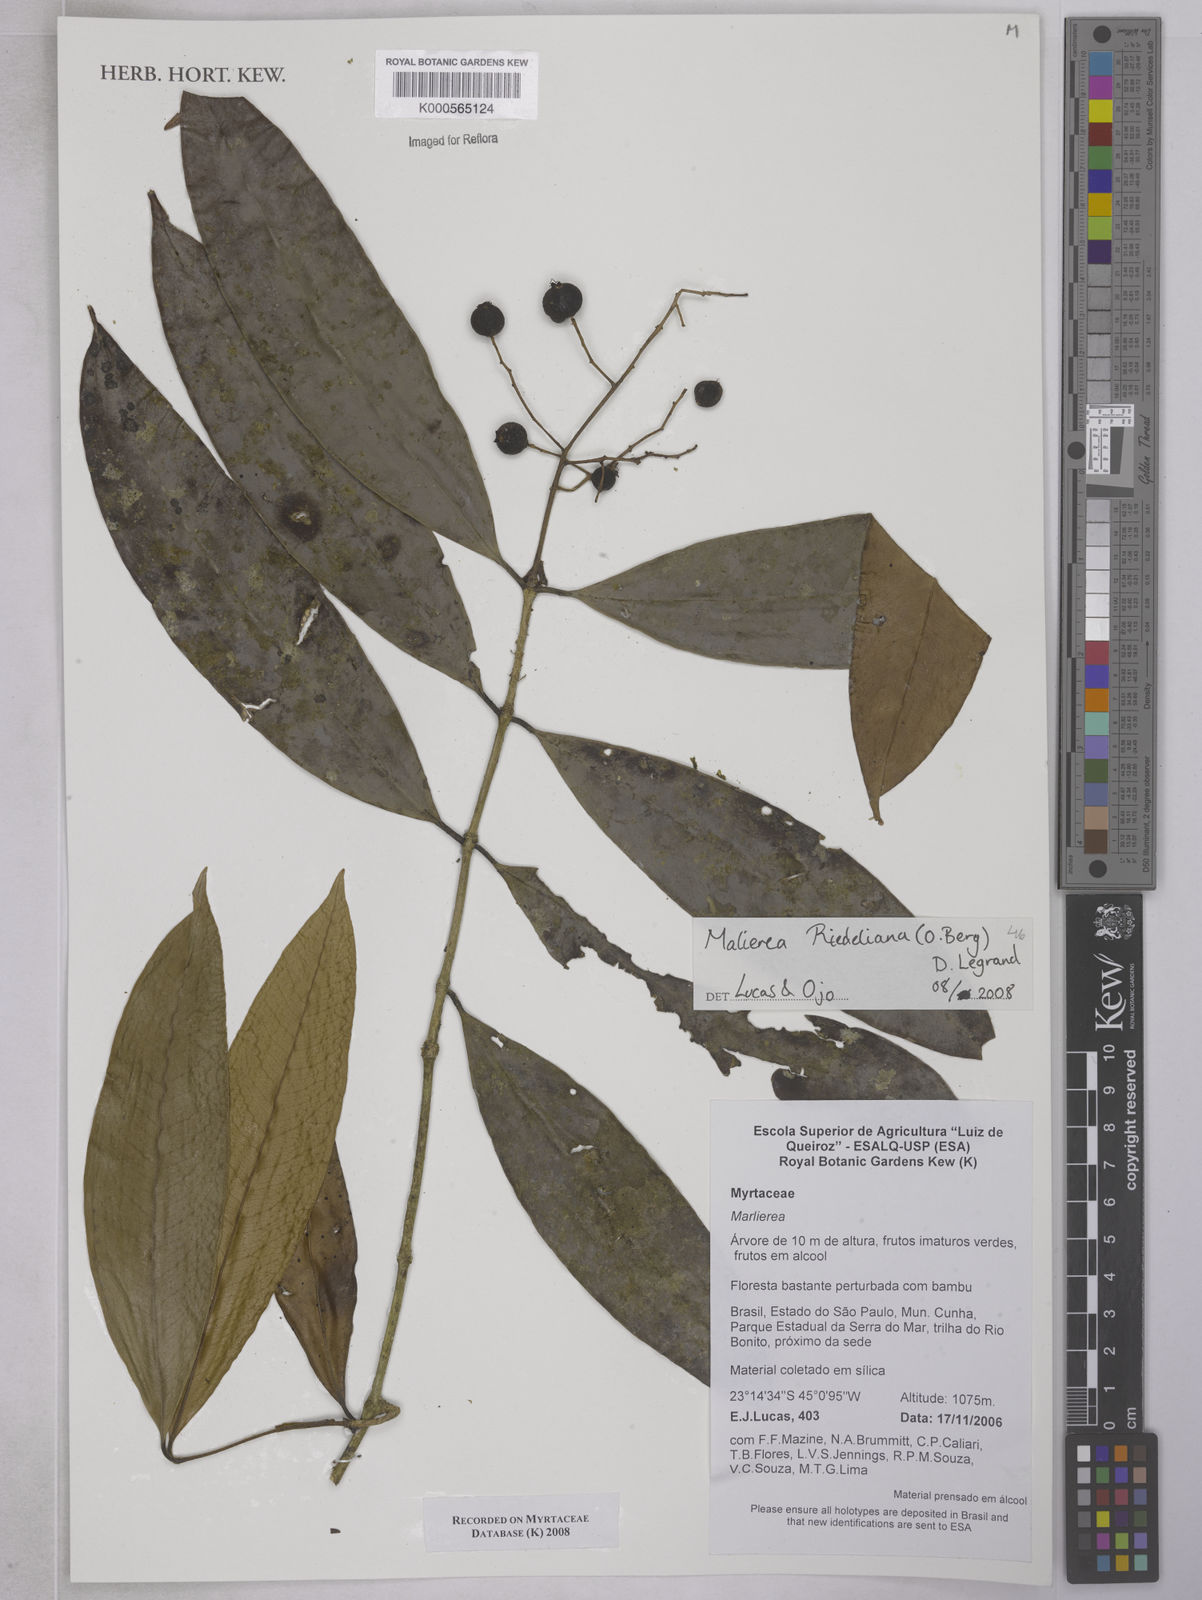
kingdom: Plantae
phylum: Tracheophyta
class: Magnoliopsida
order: Myrtales
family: Myrtaceae
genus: Myrcia
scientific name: Myrcia neoriedeliana
